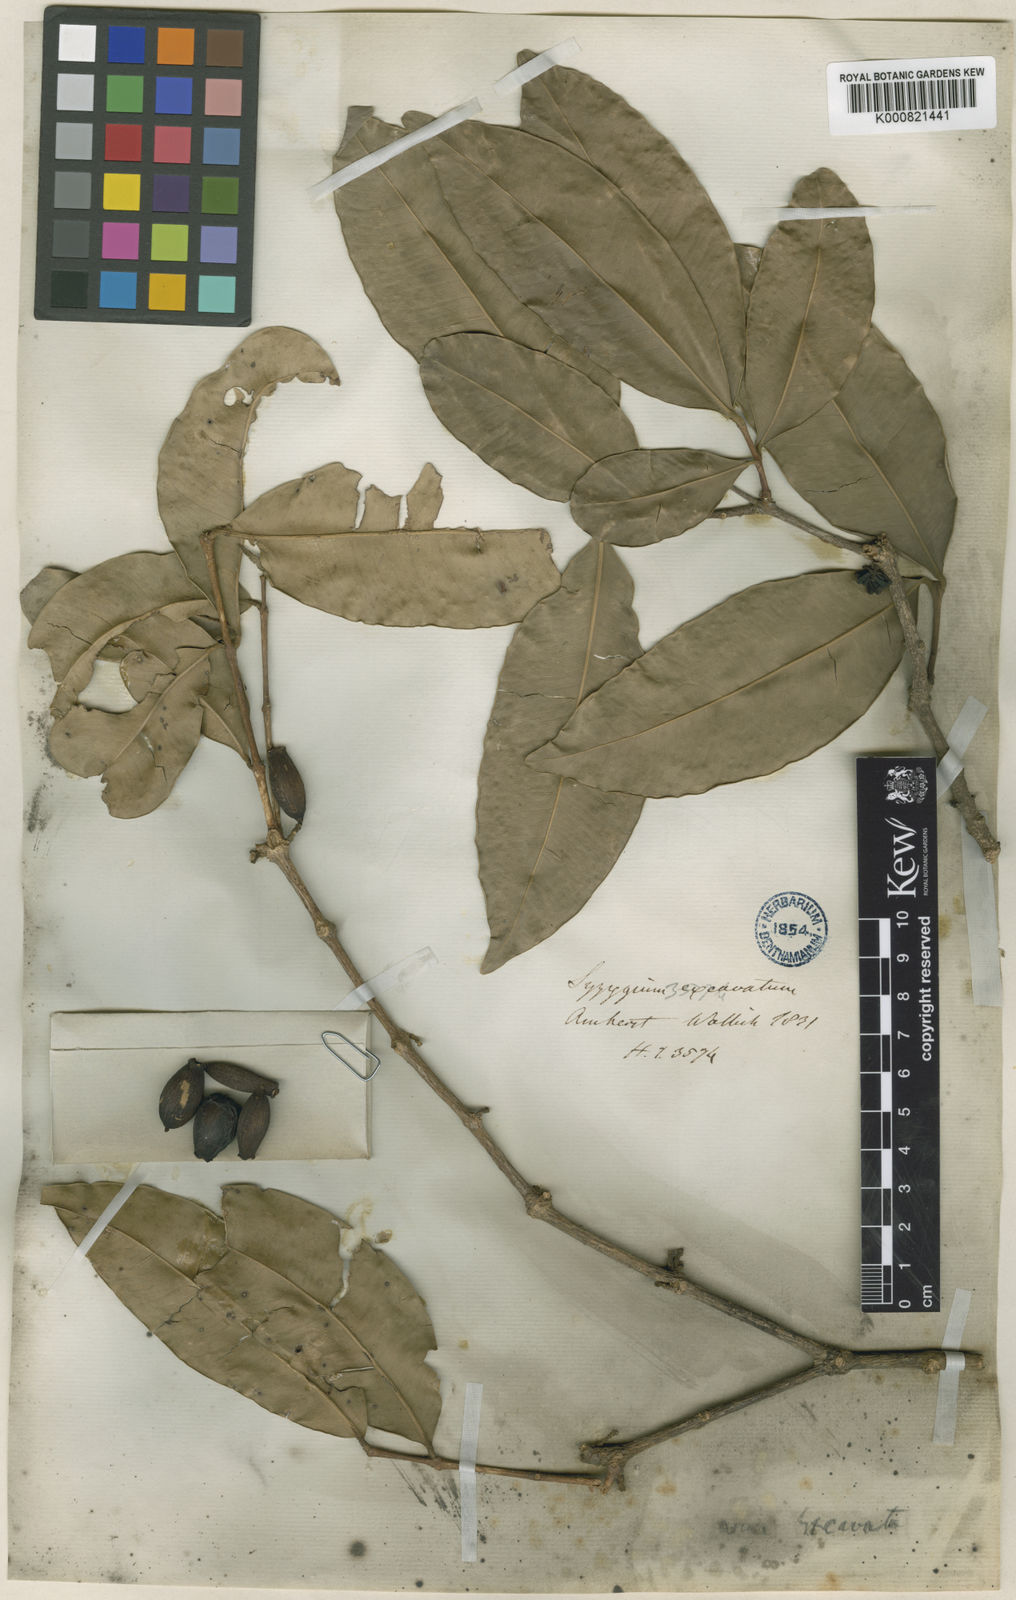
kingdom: Plantae
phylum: Tracheophyta
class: Magnoliopsida
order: Myrtales
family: Myrtaceae
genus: Syzygium
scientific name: Syzygium
